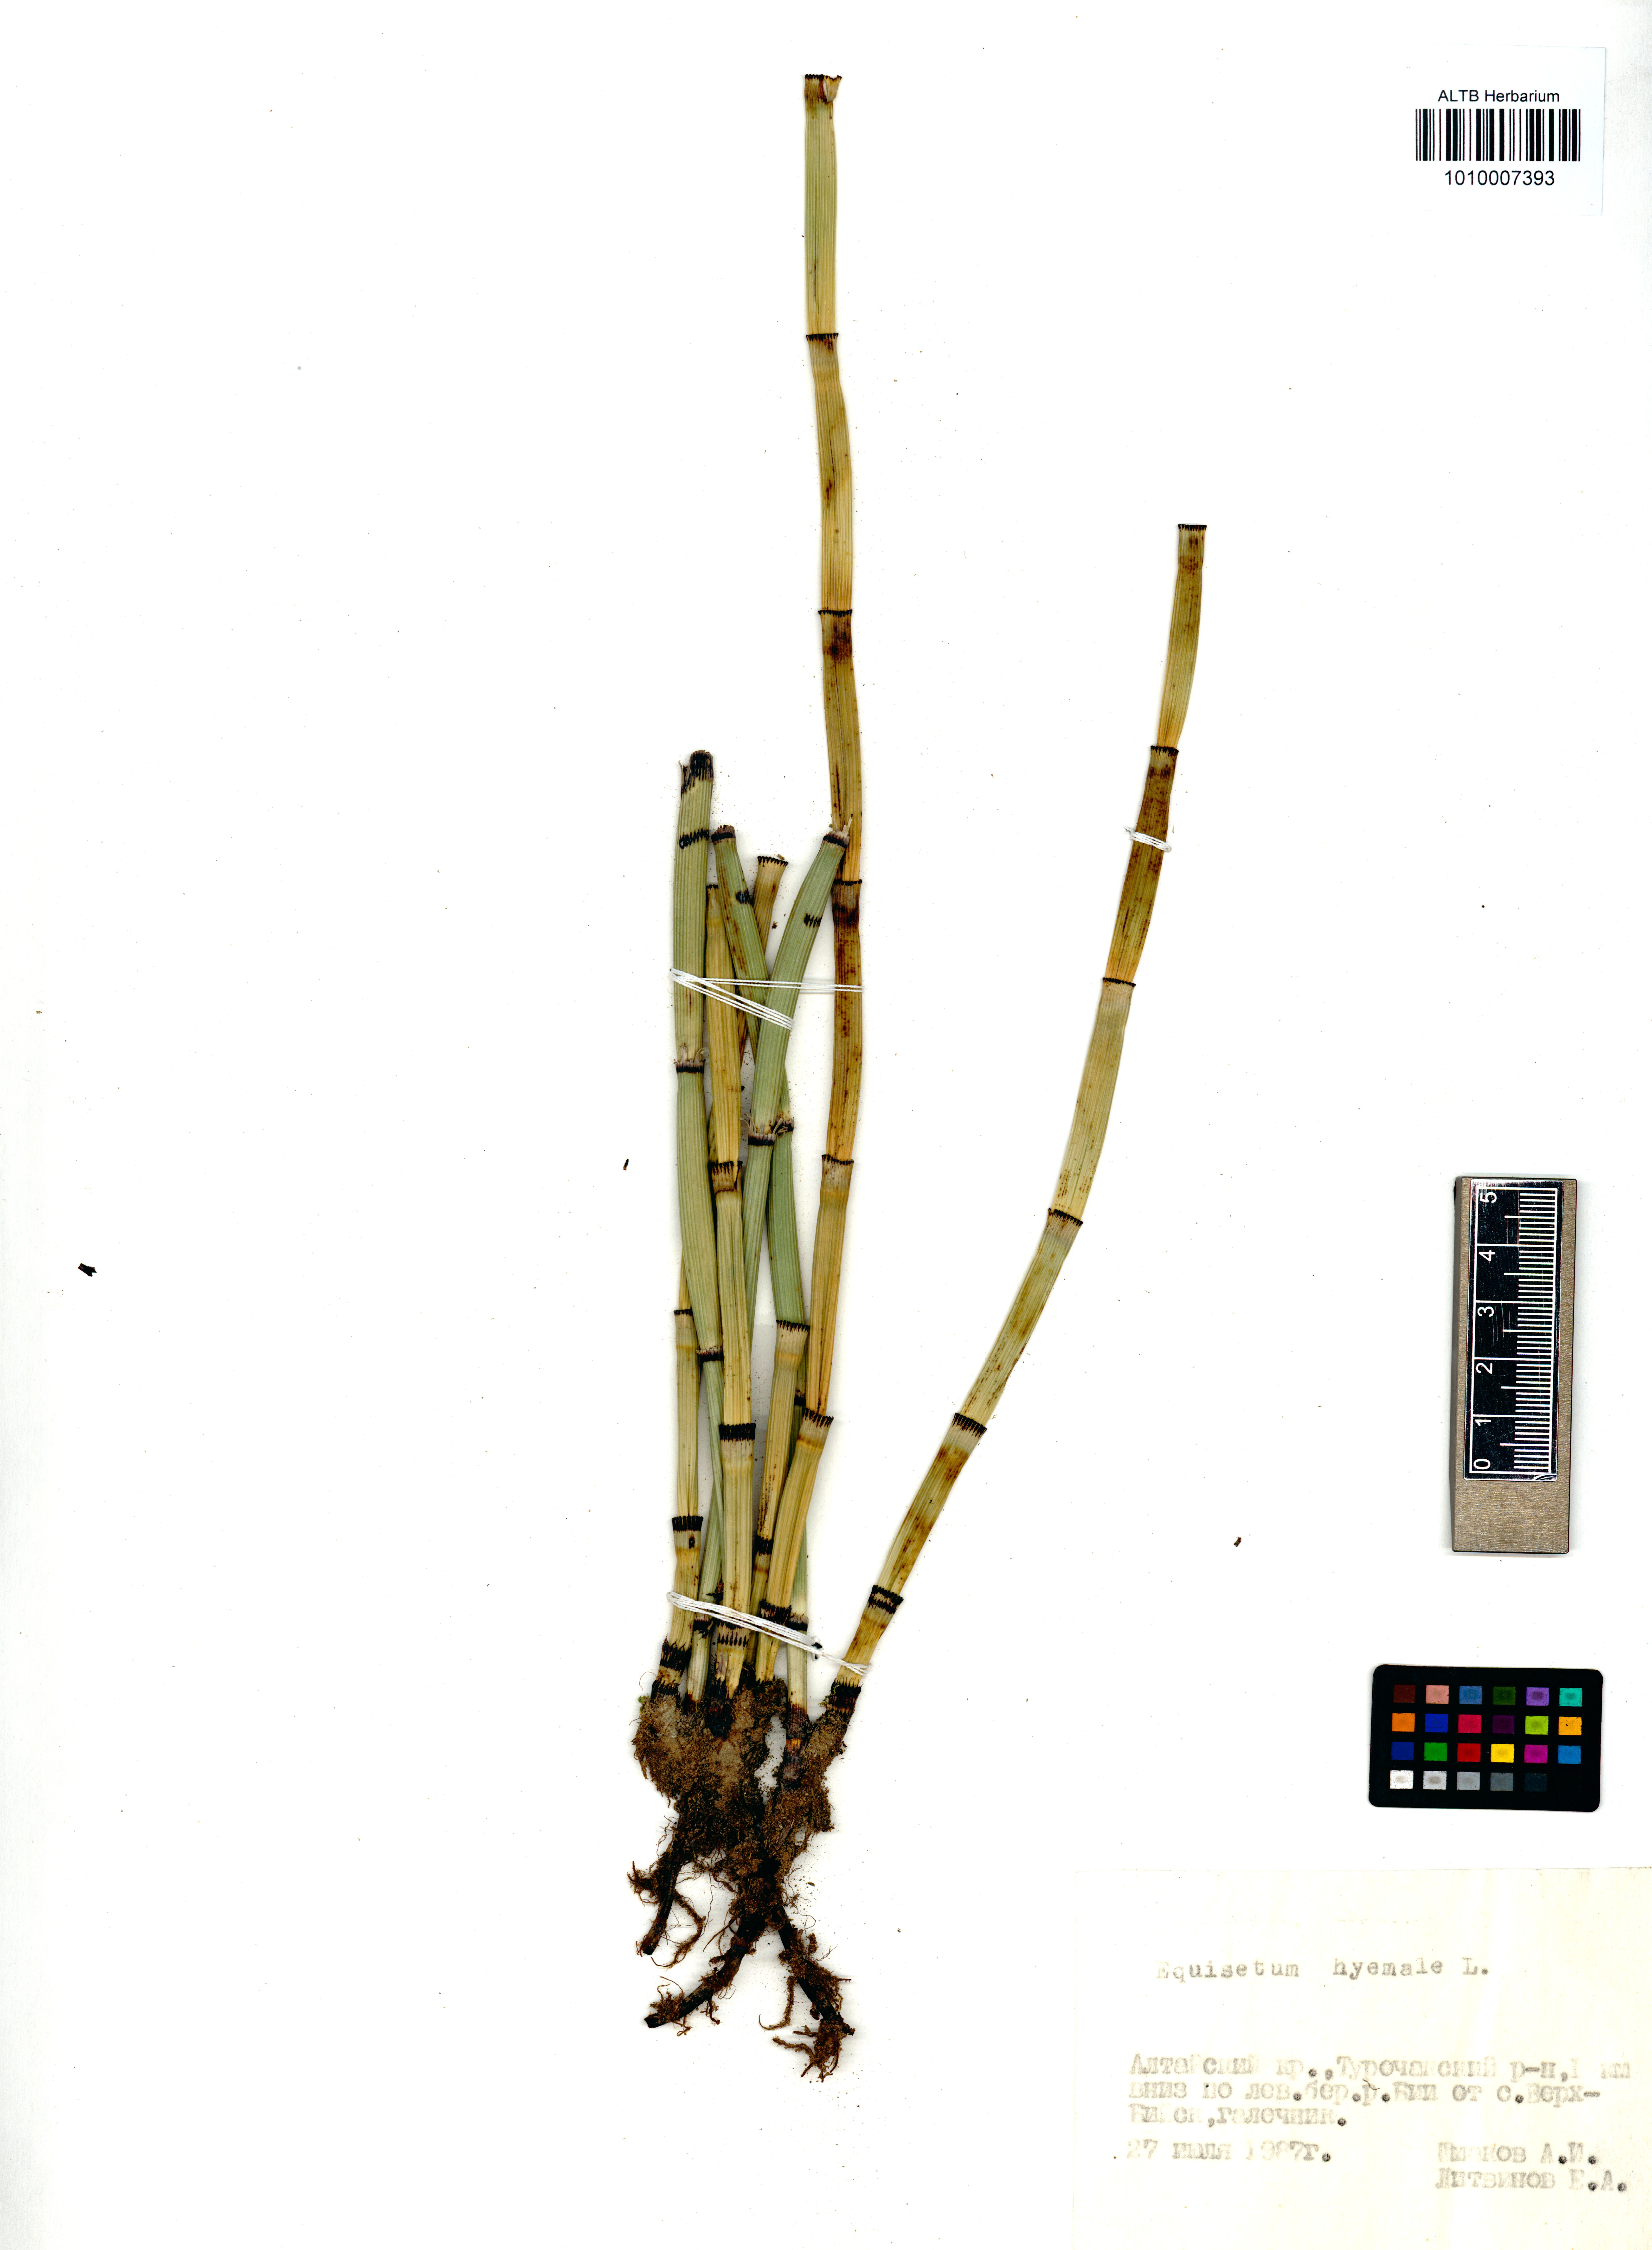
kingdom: Plantae
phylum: Tracheophyta
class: Polypodiopsida
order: Equisetales
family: Equisetaceae
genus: Equisetum
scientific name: Equisetum hyemale
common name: Rough horsetail
